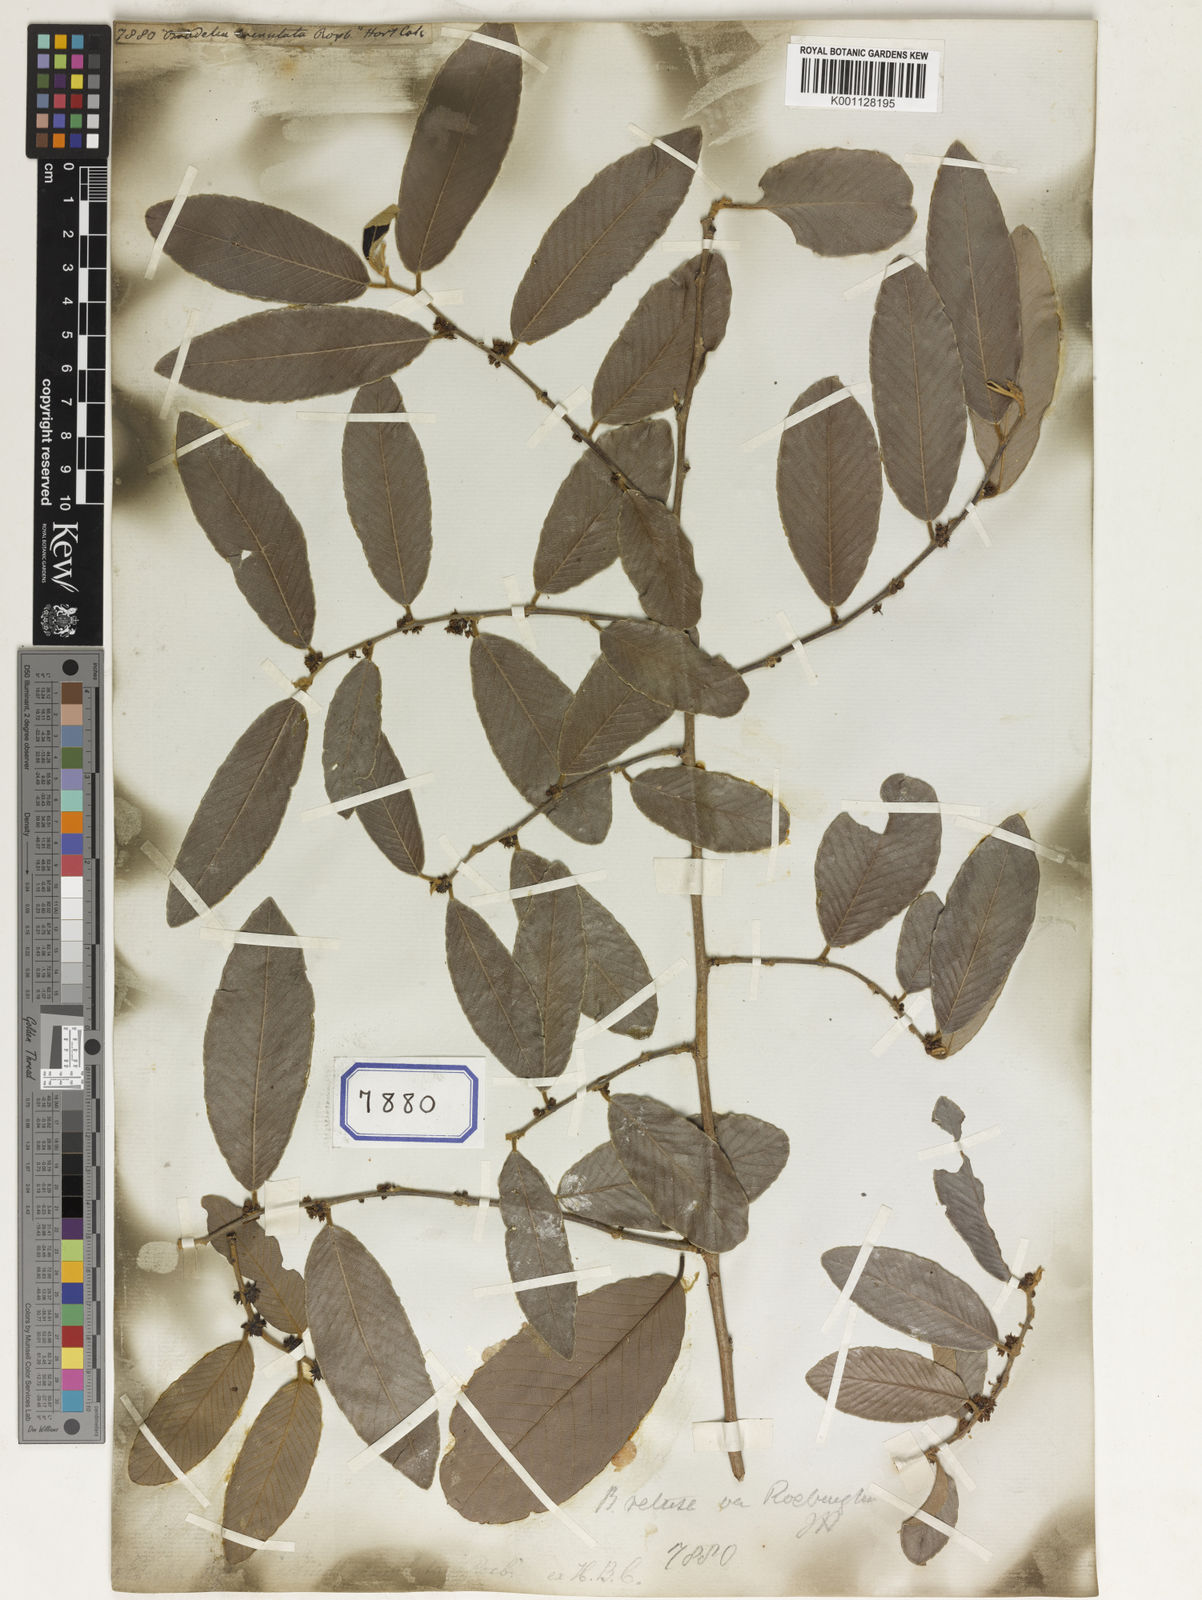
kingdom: Plantae
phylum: Tracheophyta
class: Magnoliopsida
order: Malpighiales
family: Euphorbiaceae
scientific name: Euphorbiaceae
